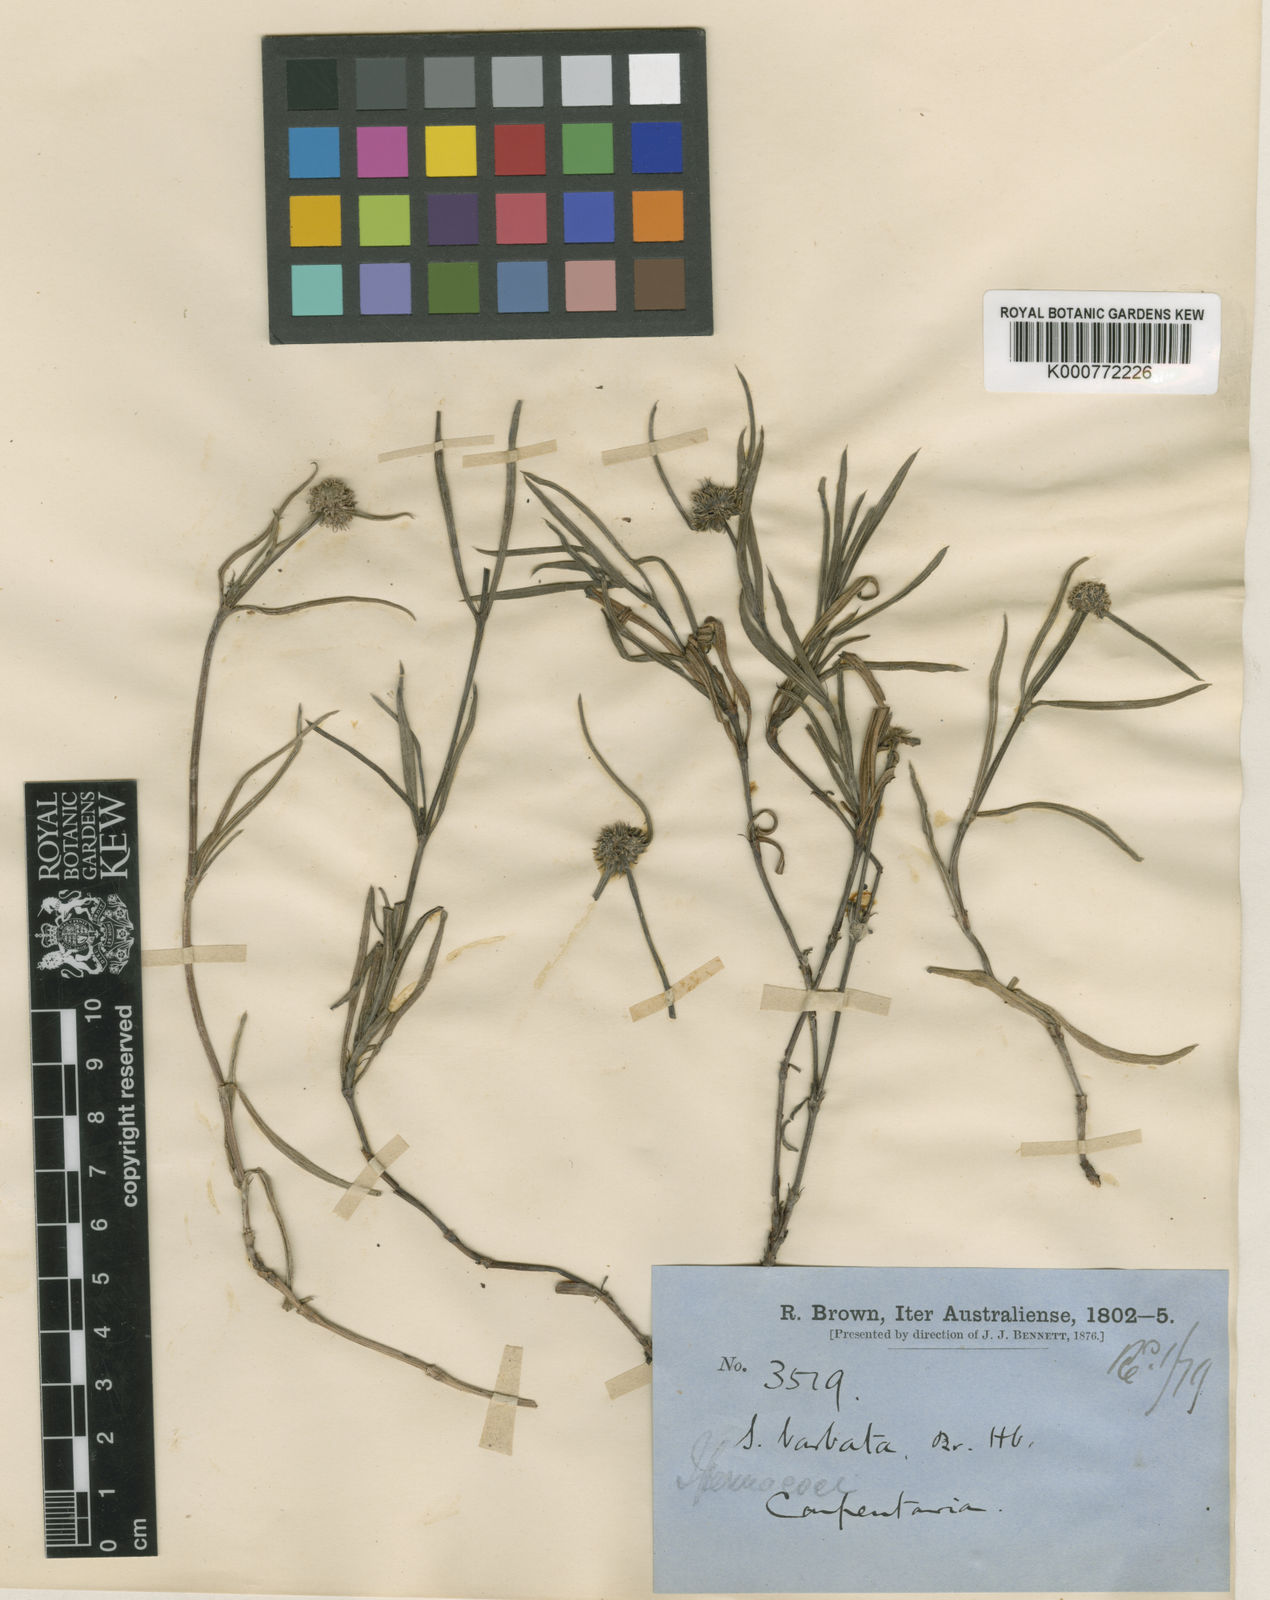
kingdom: Plantae
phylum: Tracheophyta
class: Magnoliopsida
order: Gentianales
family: Rubiaceae
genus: Diodia
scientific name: Diodia barbata
